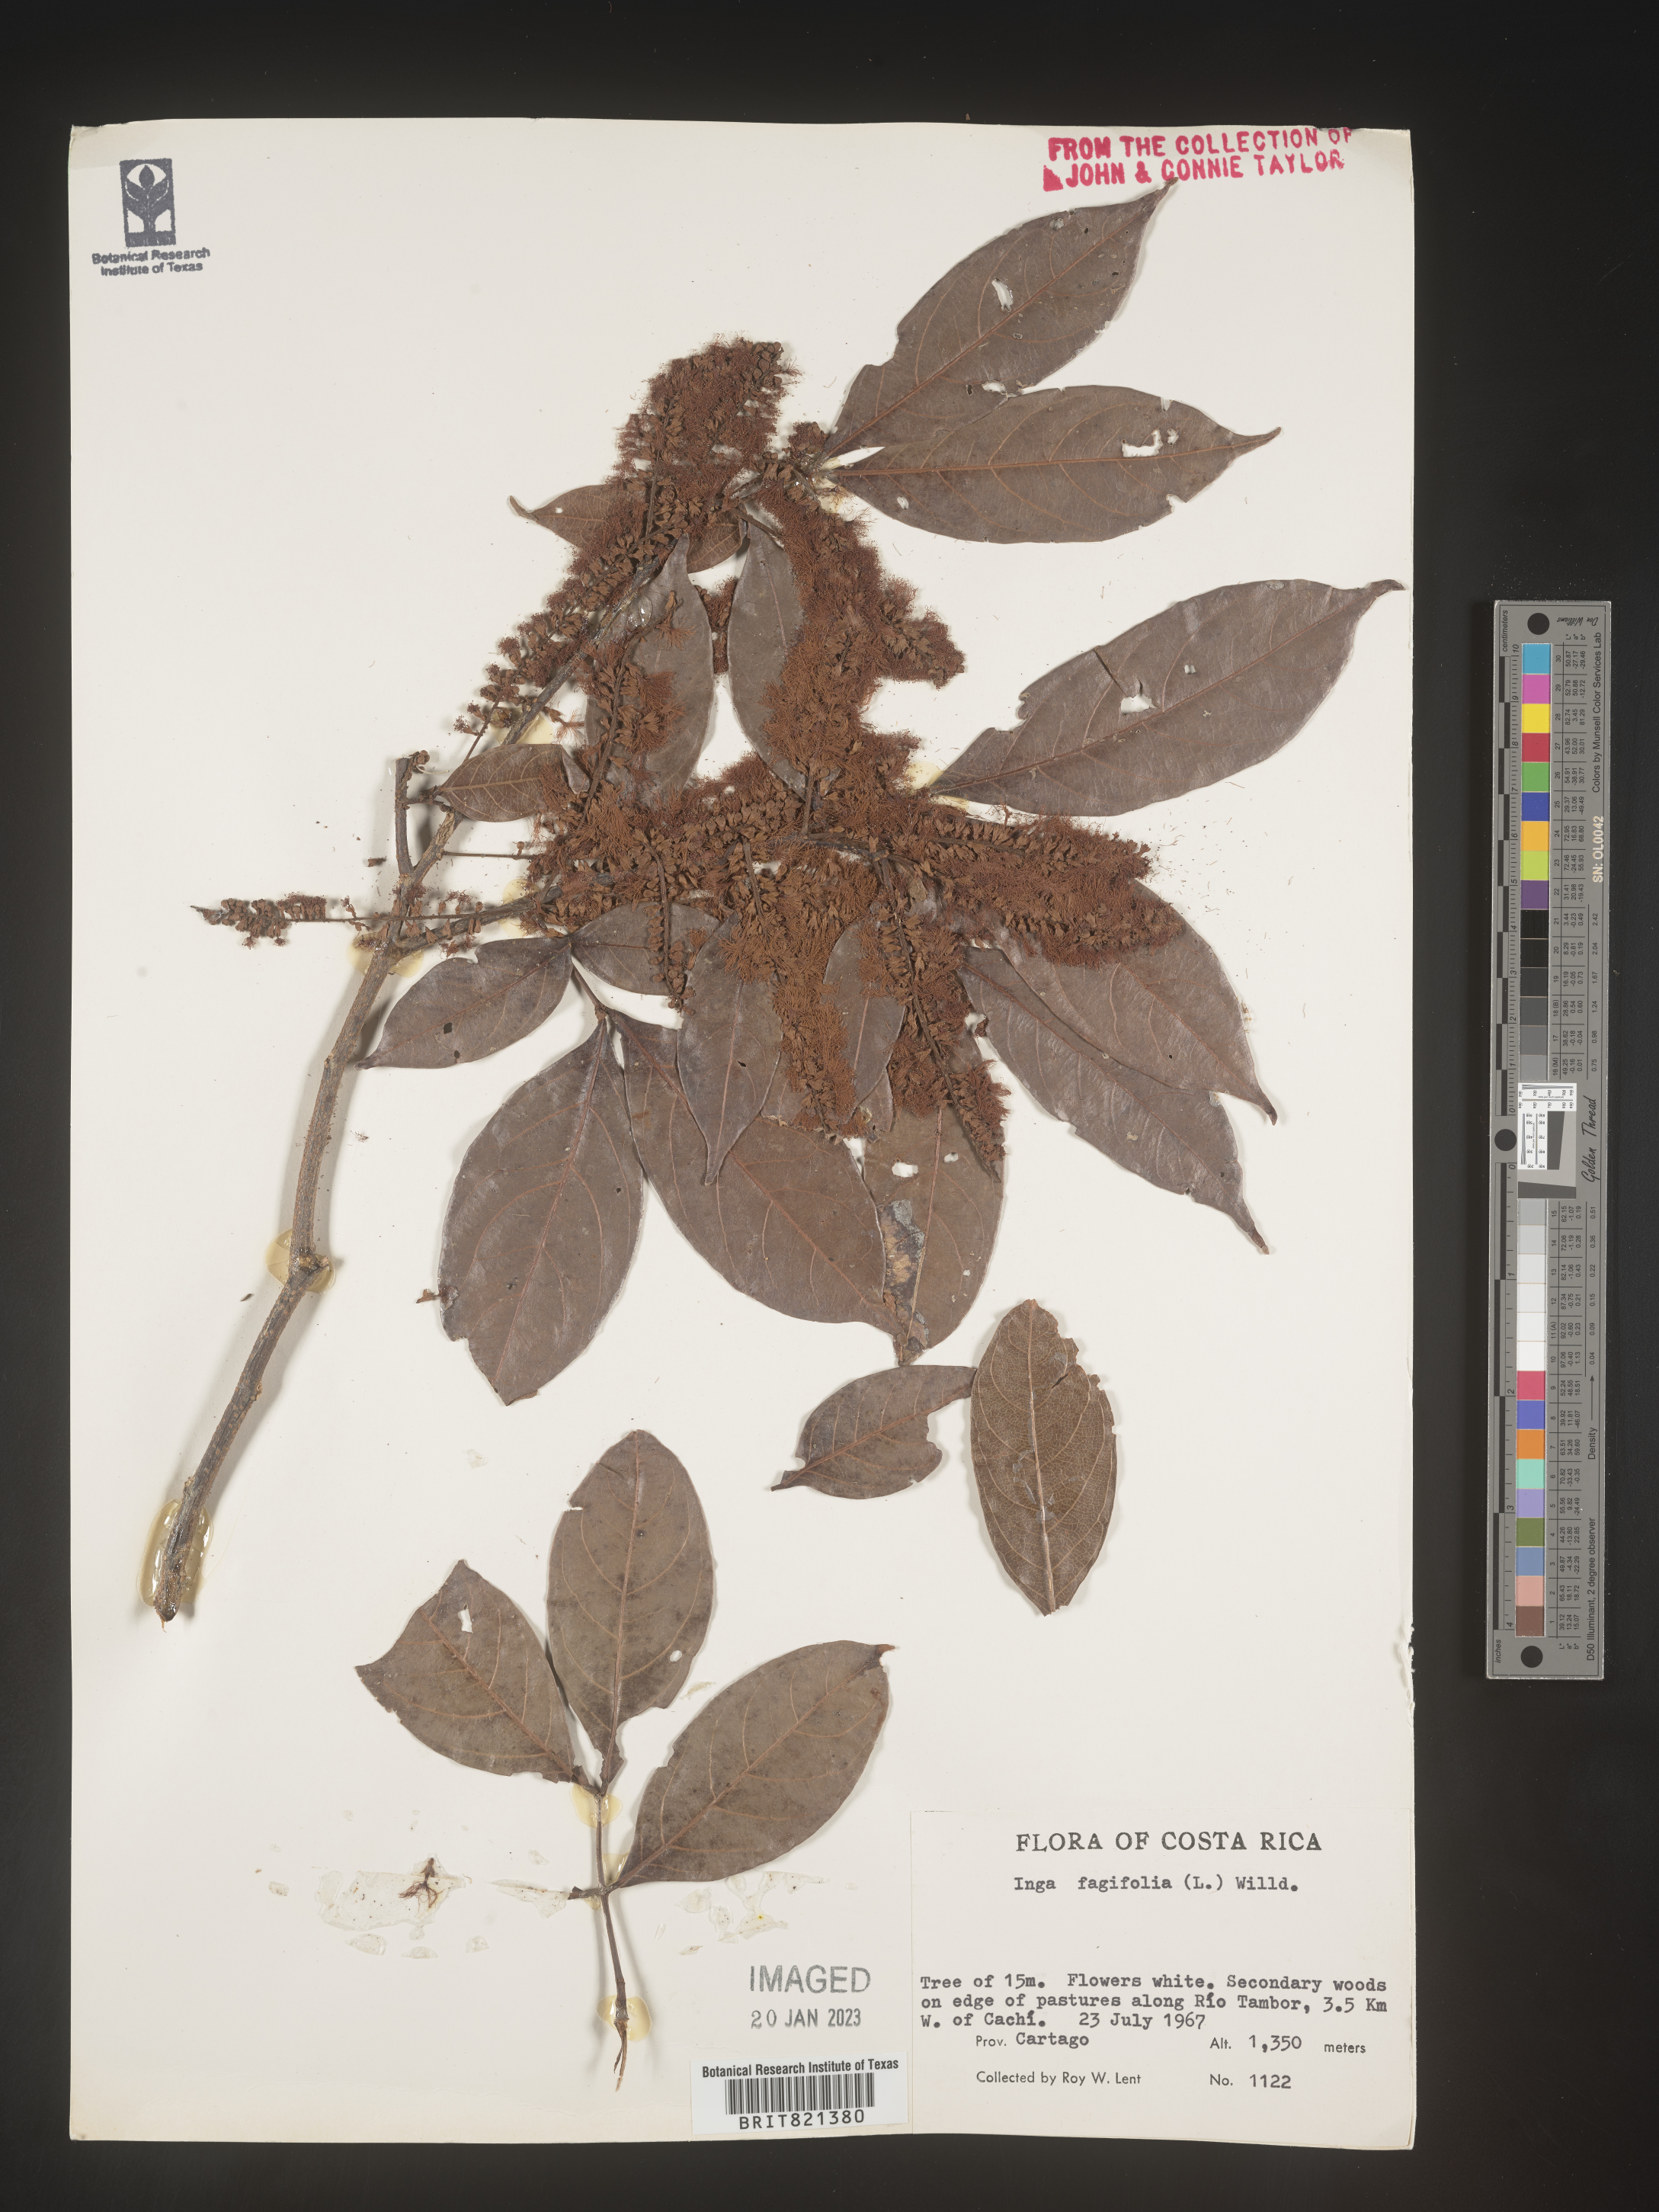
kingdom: Plantae
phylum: Tracheophyta
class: Magnoliopsida
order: Fabales
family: Fabaceae
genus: Inga
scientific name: Inga
